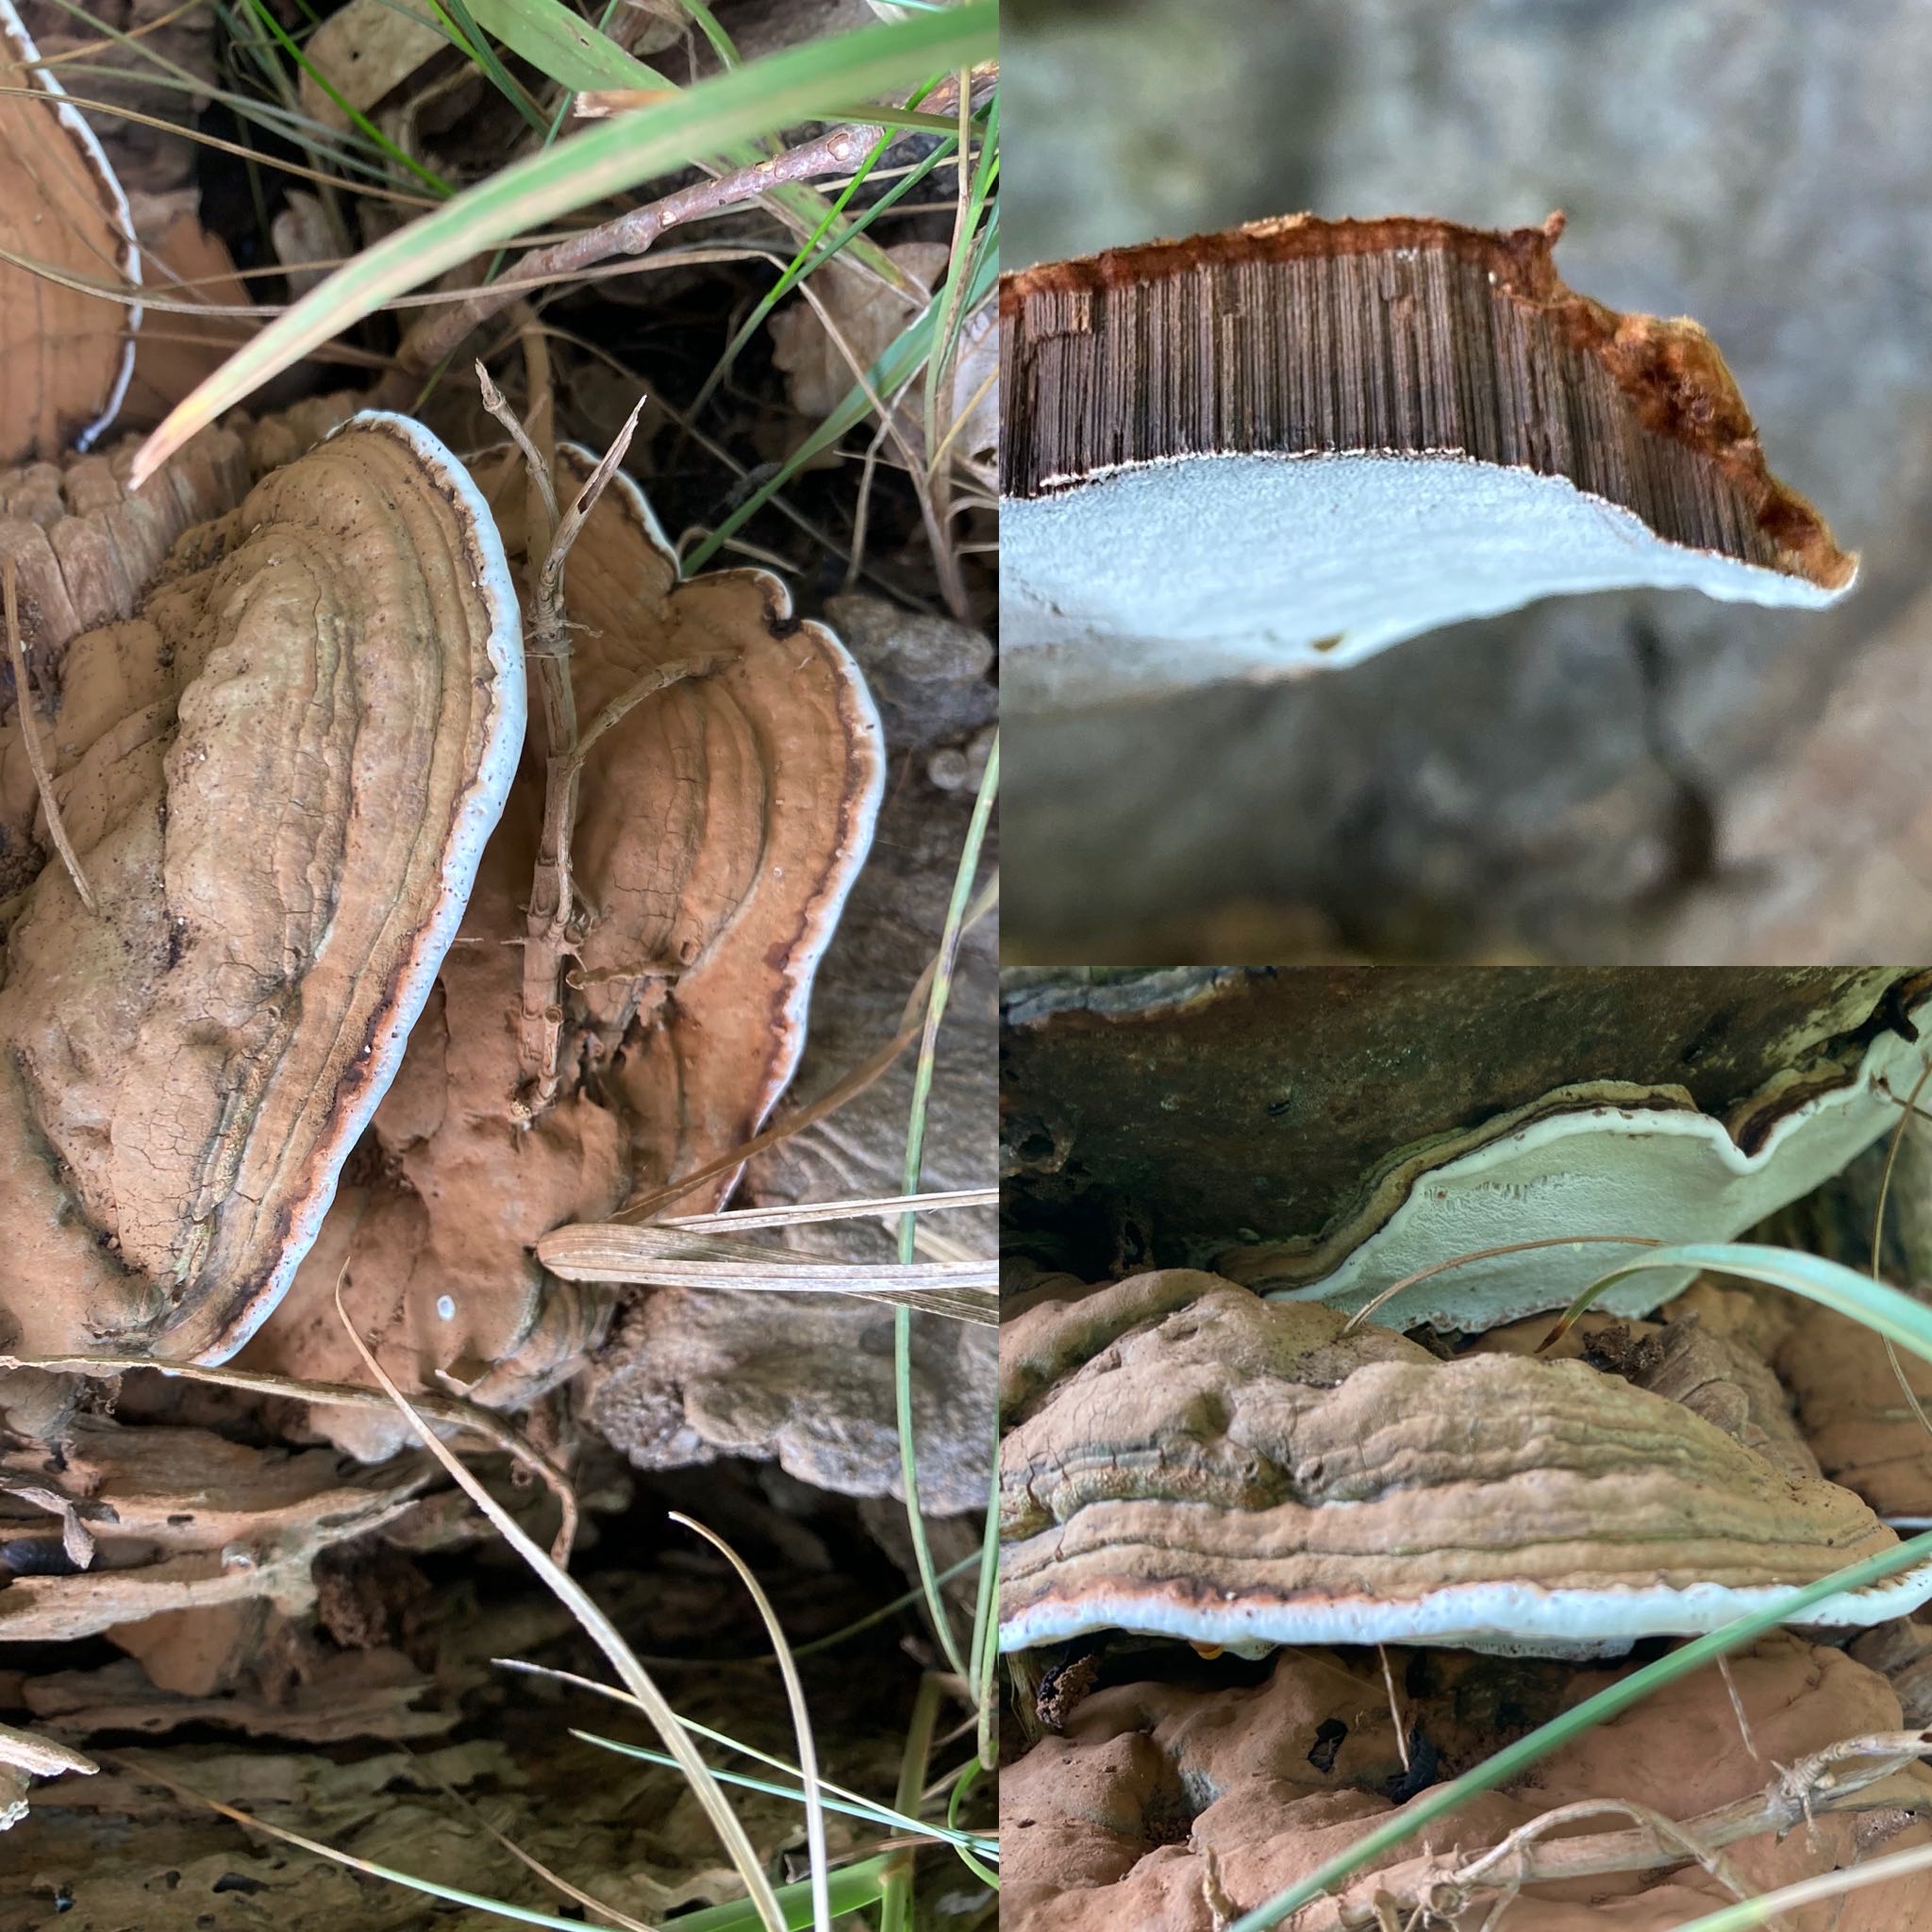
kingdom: Fungi
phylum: Basidiomycota
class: Agaricomycetes
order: Polyporales
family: Polyporaceae
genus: Ganoderma
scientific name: Ganoderma applanatum
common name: flad lakporesvamp
